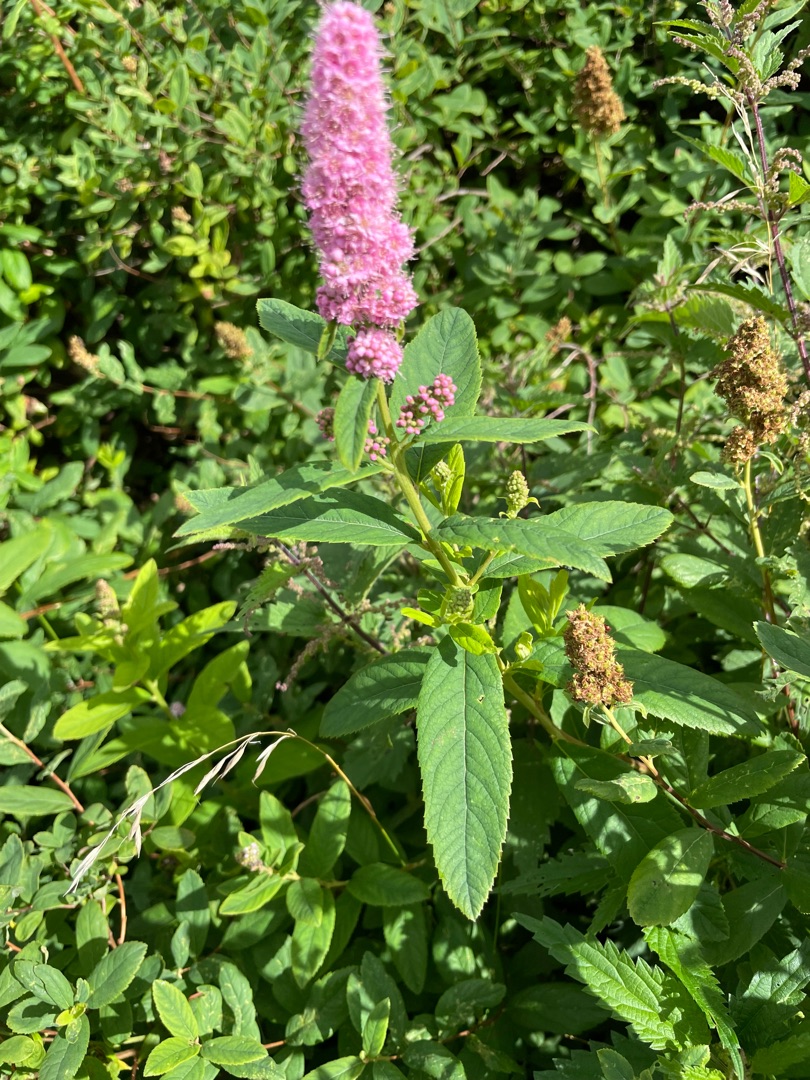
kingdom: Plantae
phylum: Tracheophyta
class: Magnoliopsida
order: Rosales
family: Rosaceae
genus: Spiraea
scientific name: Spiraea
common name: Spiræaslægten
